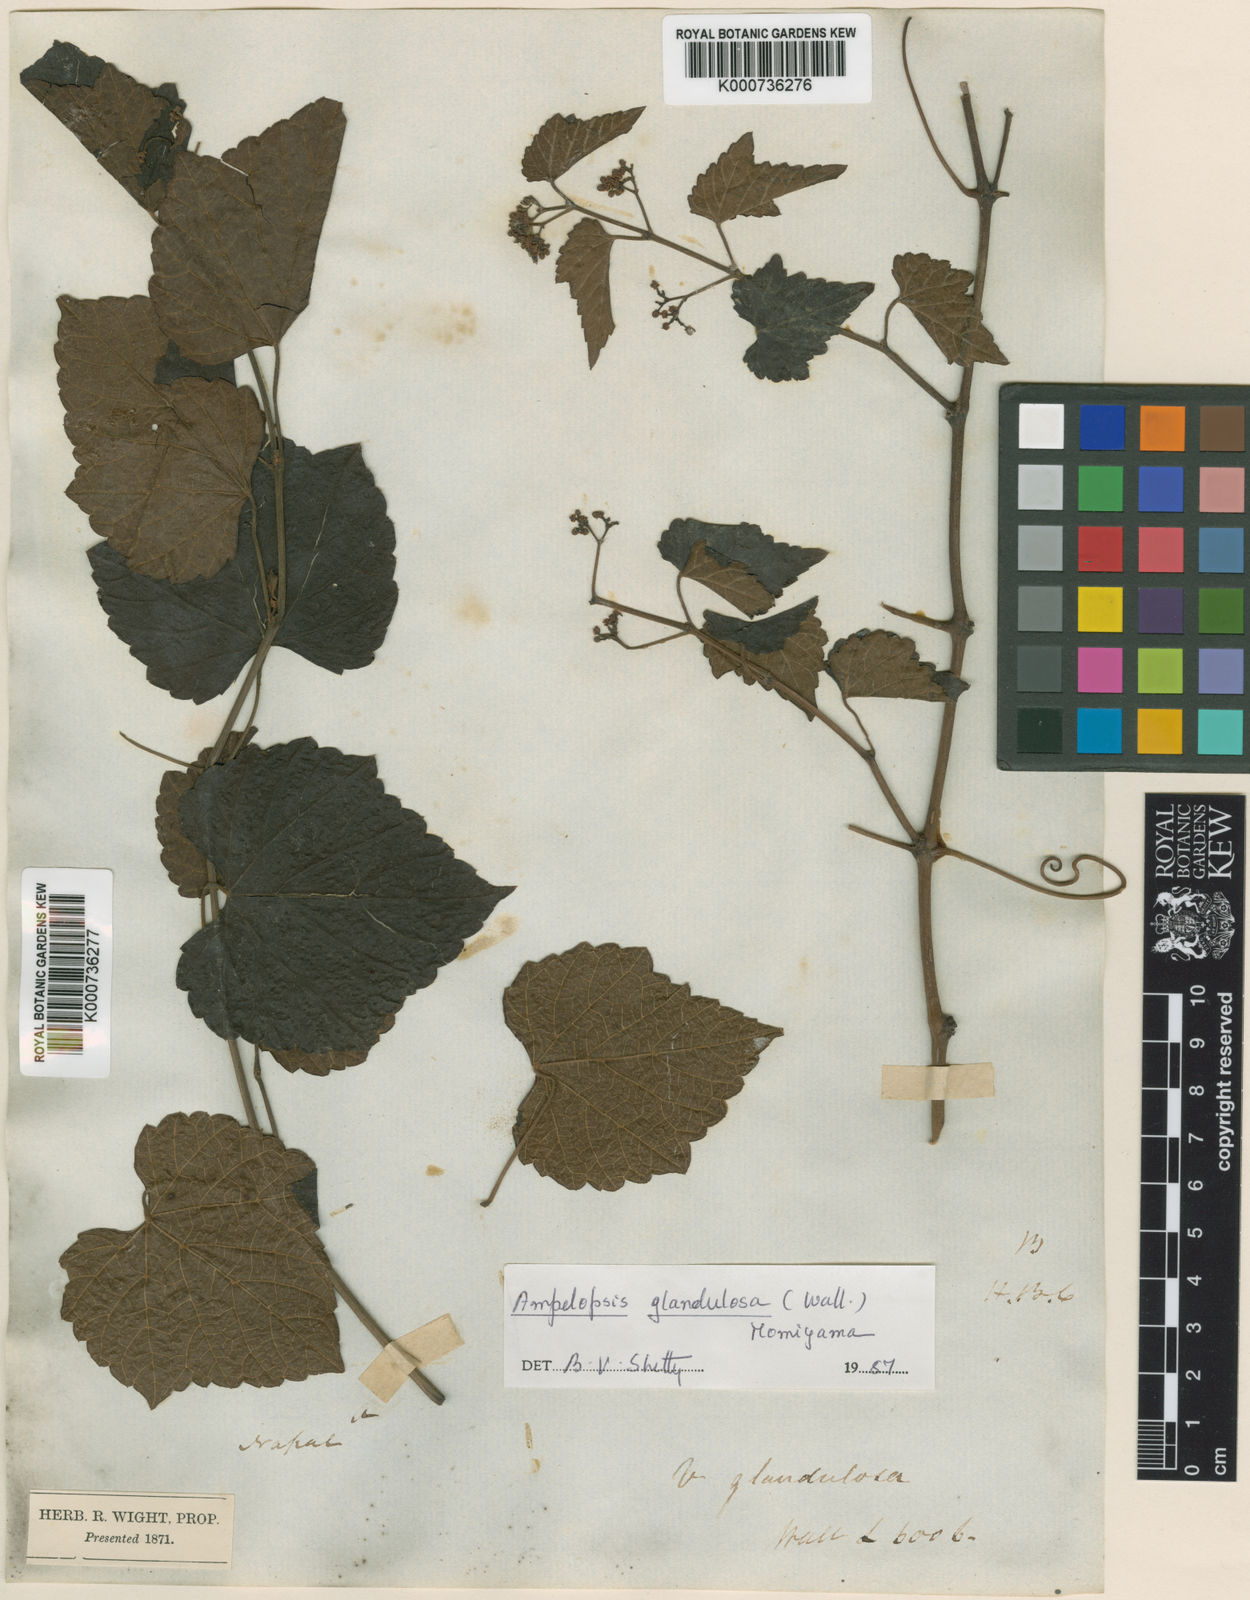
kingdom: Plantae
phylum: Tracheophyta
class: Magnoliopsida
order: Vitales
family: Vitaceae
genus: Ampelopsis
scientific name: Ampelopsis glandulosa
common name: Amur peppervine
